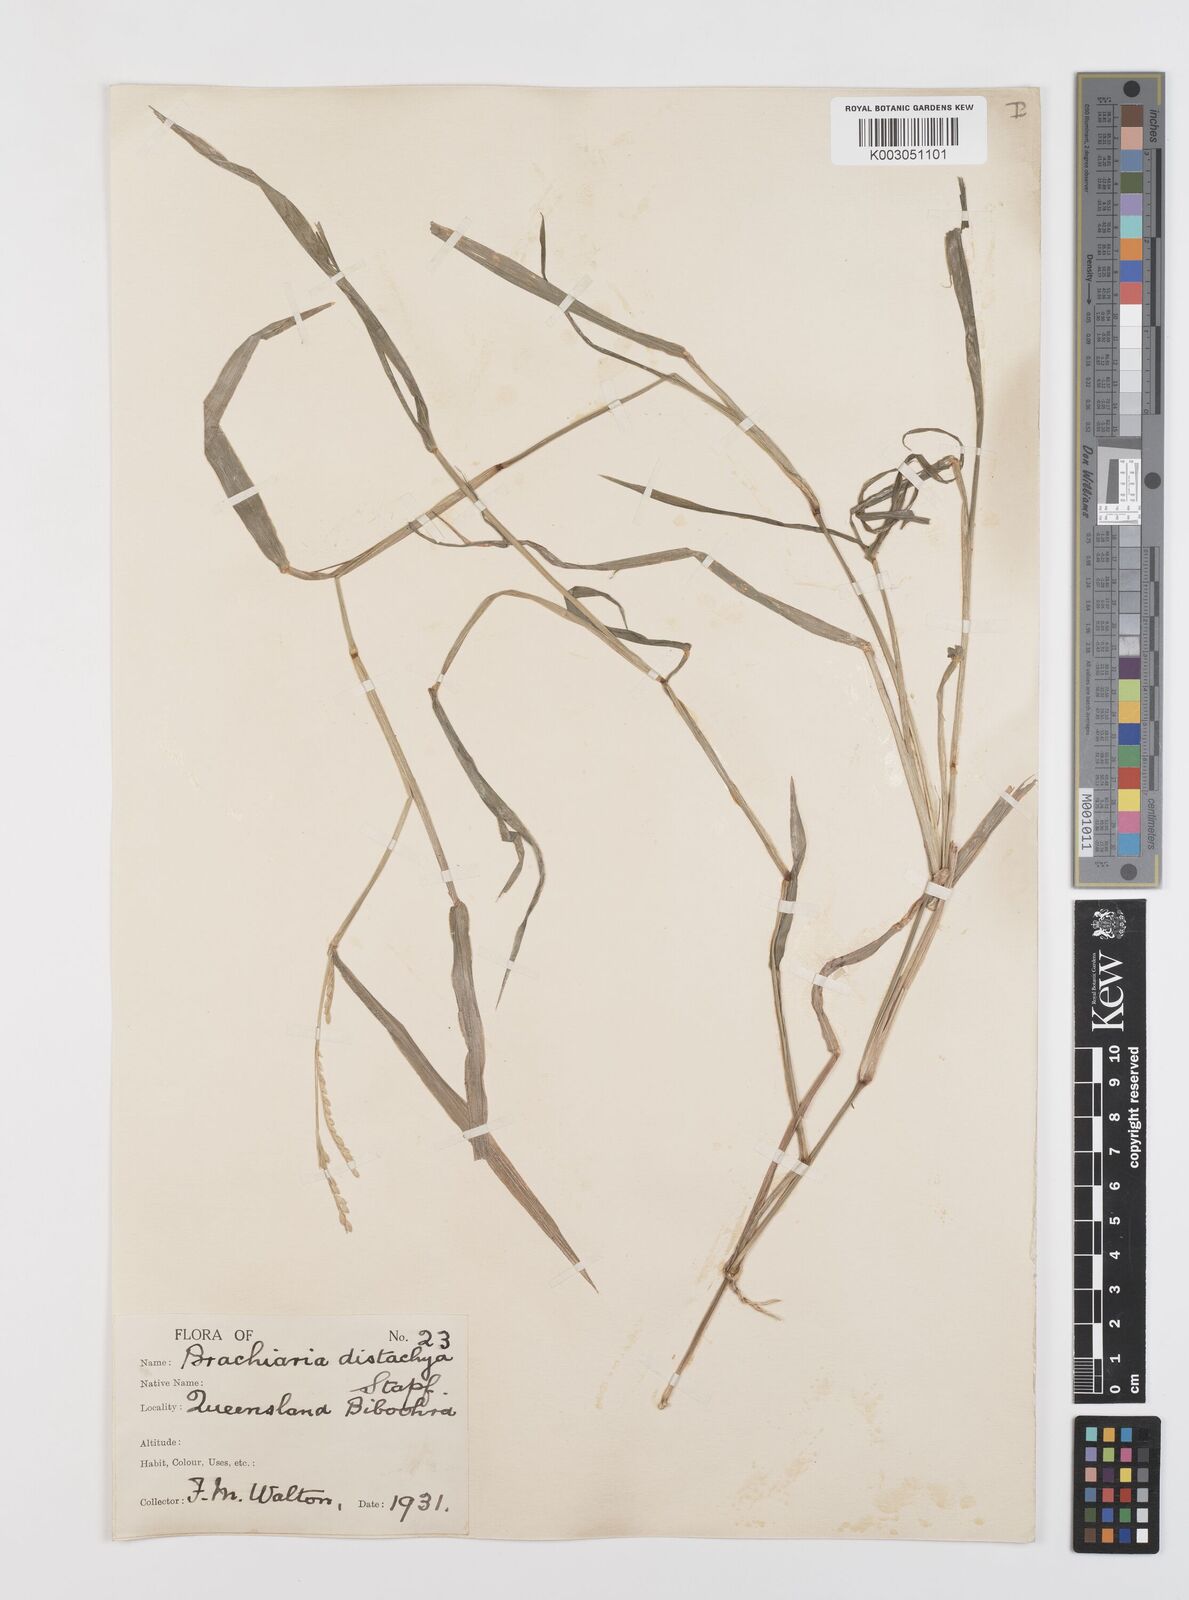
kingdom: Plantae
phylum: Tracheophyta
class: Liliopsida
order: Poales
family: Poaceae
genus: Urochloa
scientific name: Urochloa piligera
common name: Wattle signalgrass
